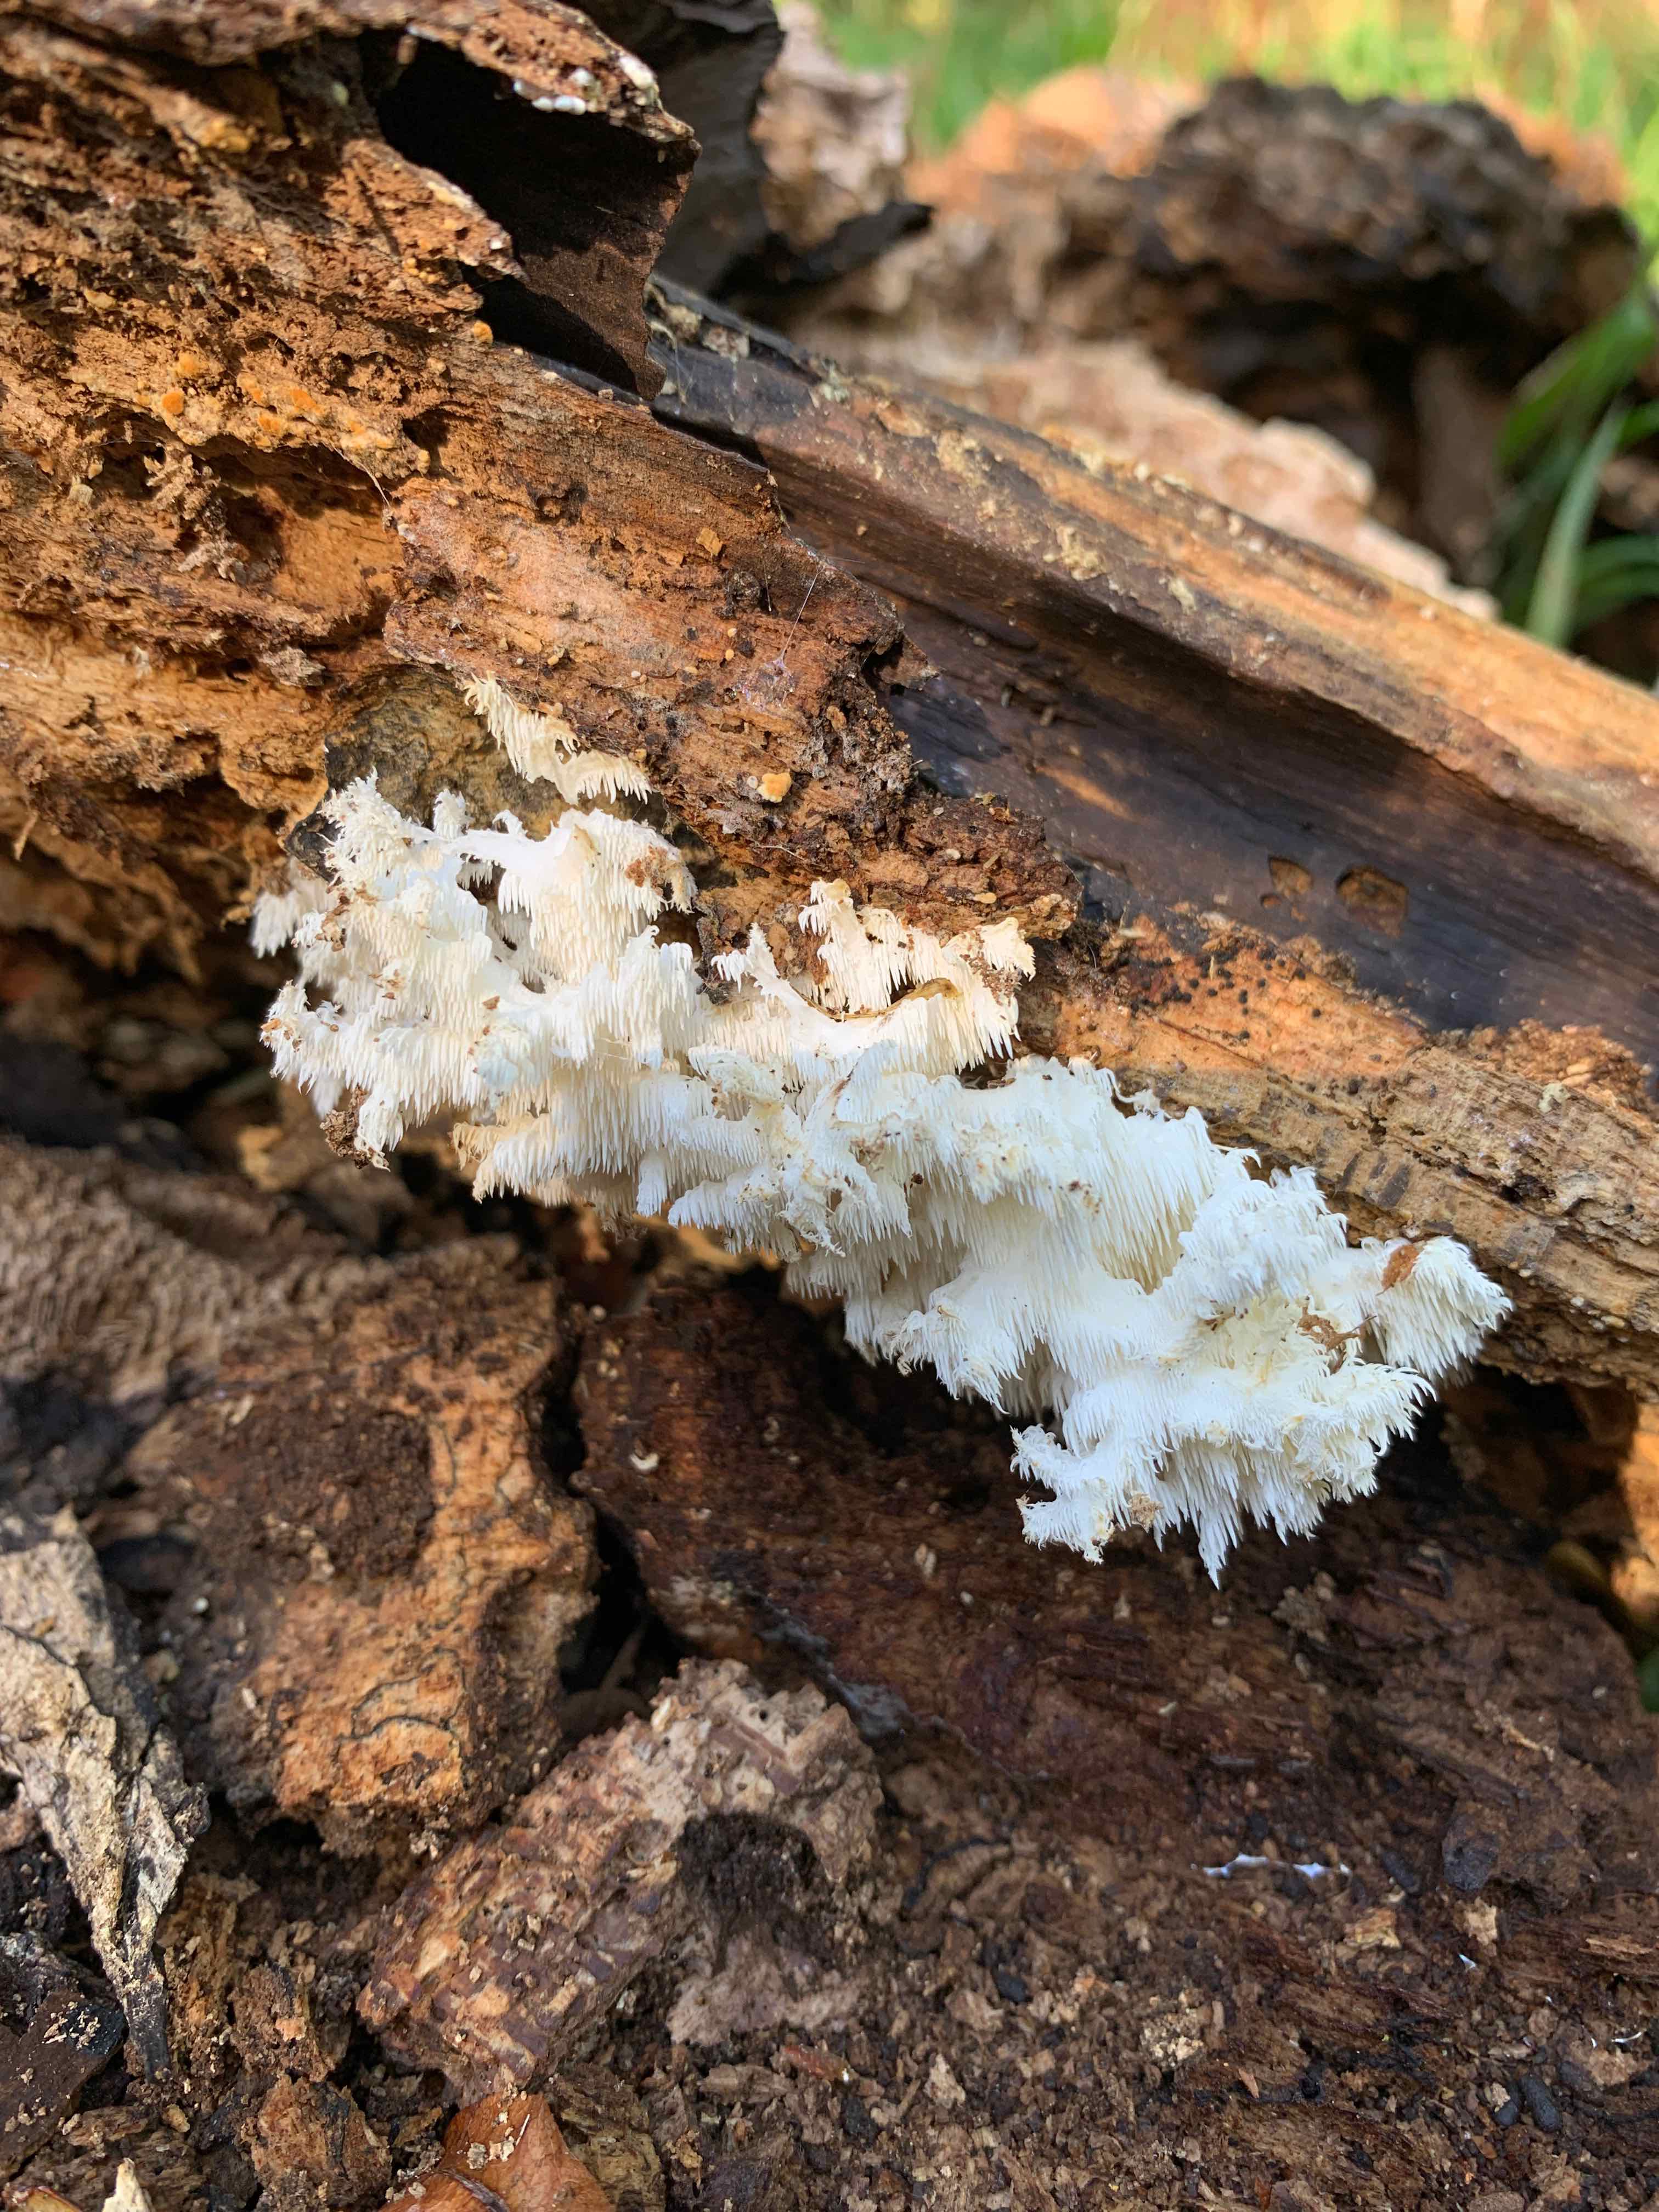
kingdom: Fungi
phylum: Basidiomycota
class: Agaricomycetes
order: Russulales
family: Hericiaceae
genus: Hericium
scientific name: Hericium coralloides
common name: koralpigsvamp
